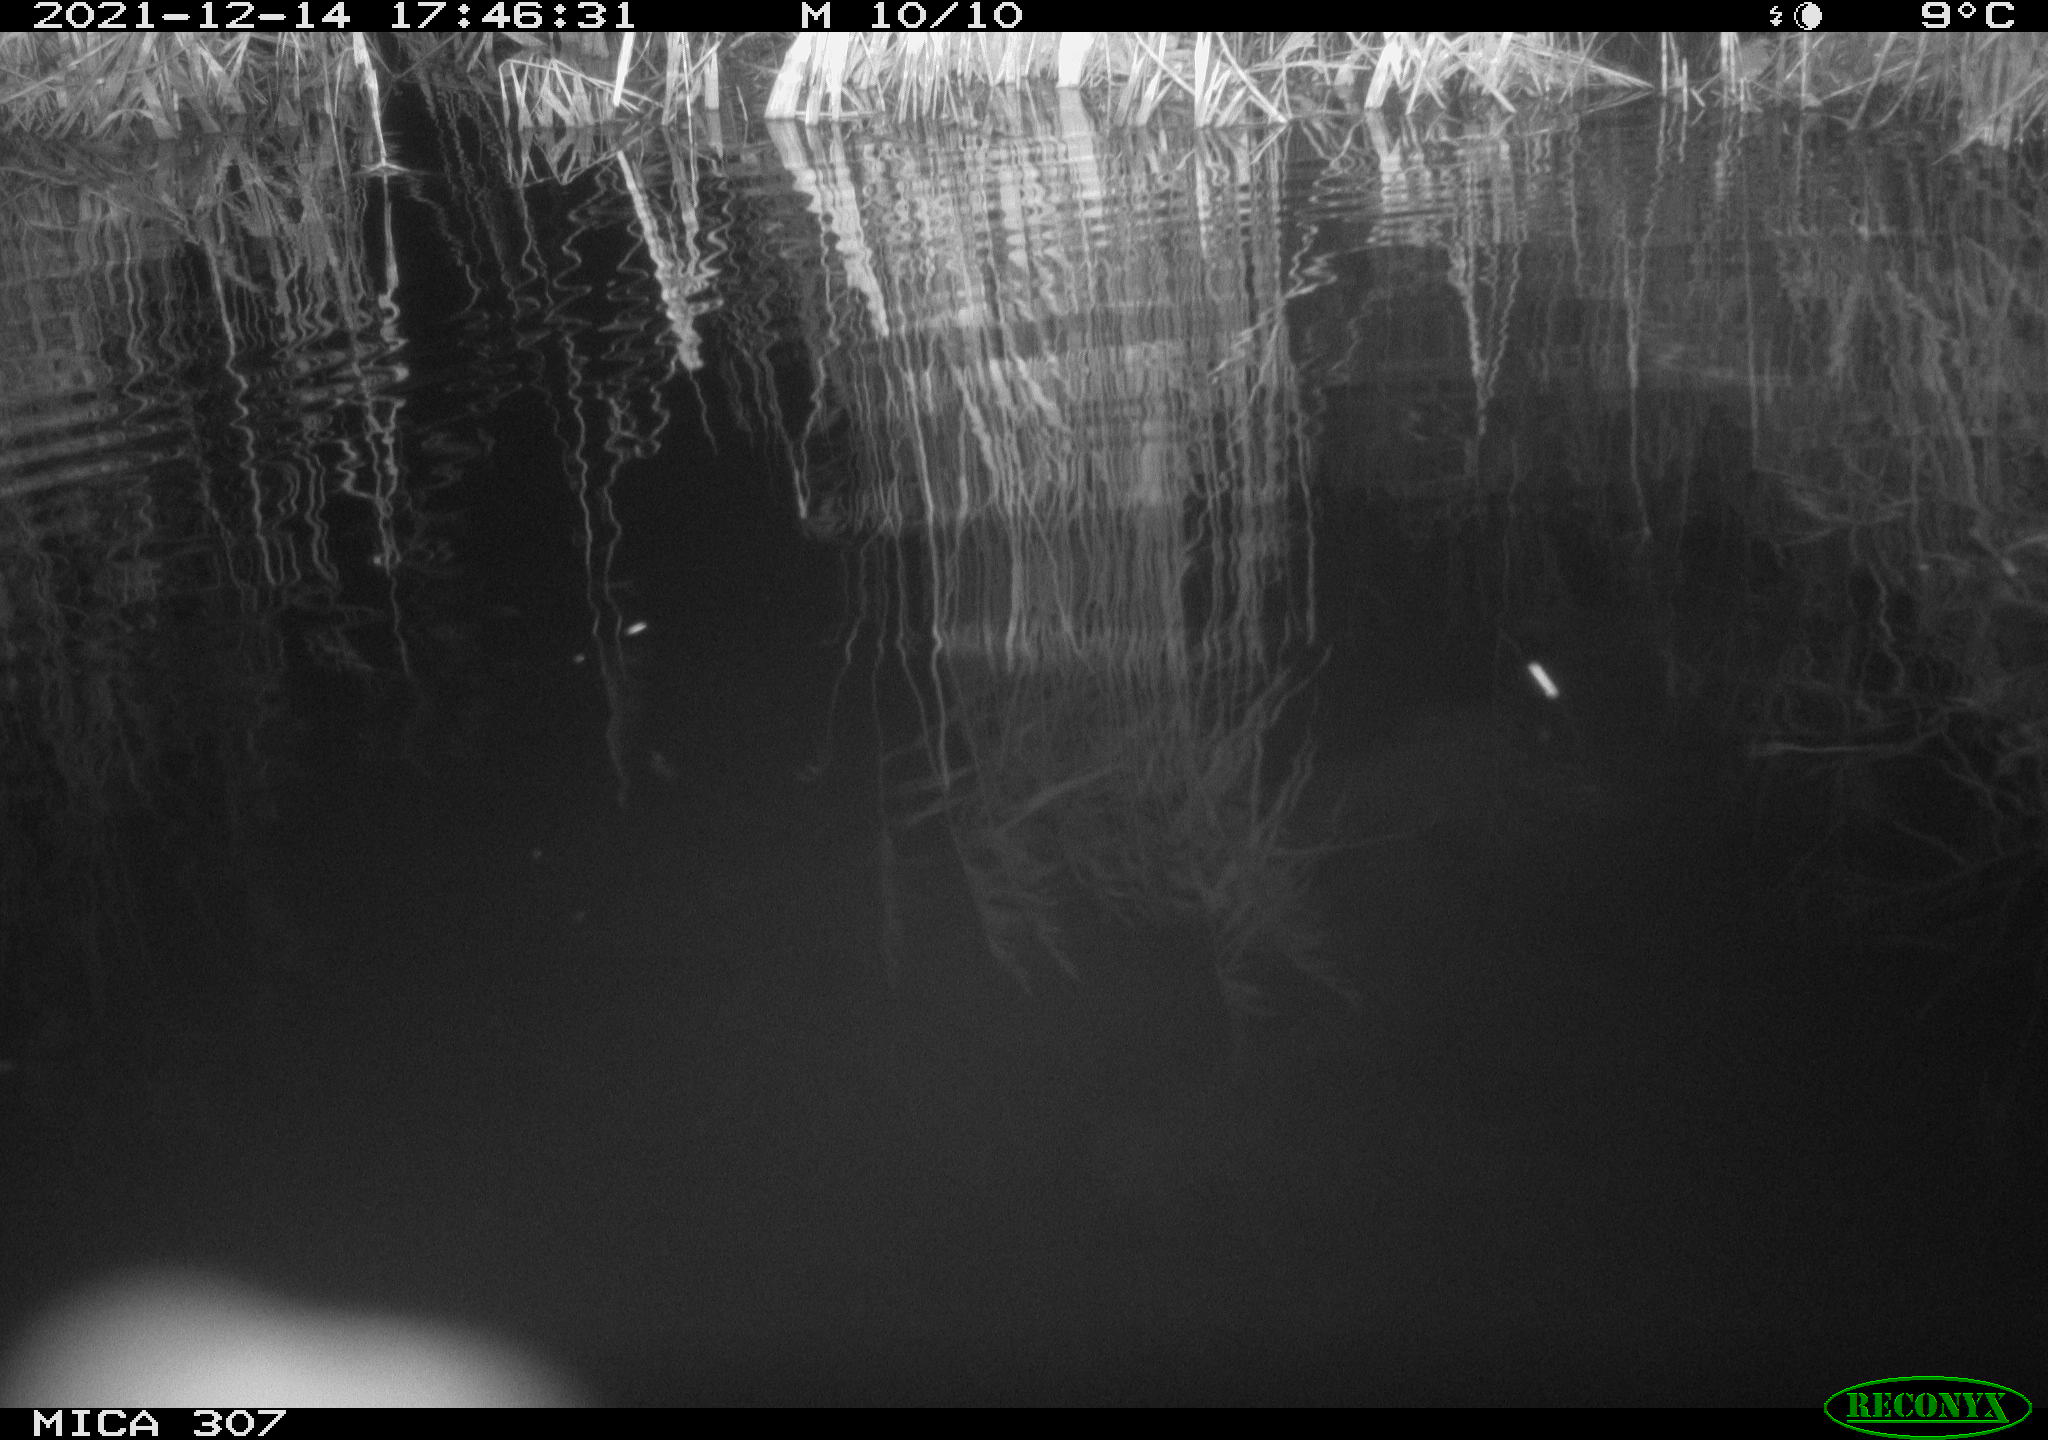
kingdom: Animalia
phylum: Chordata
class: Mammalia
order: Rodentia
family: Muridae
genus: Rattus
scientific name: Rattus norvegicus
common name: Brown rat
